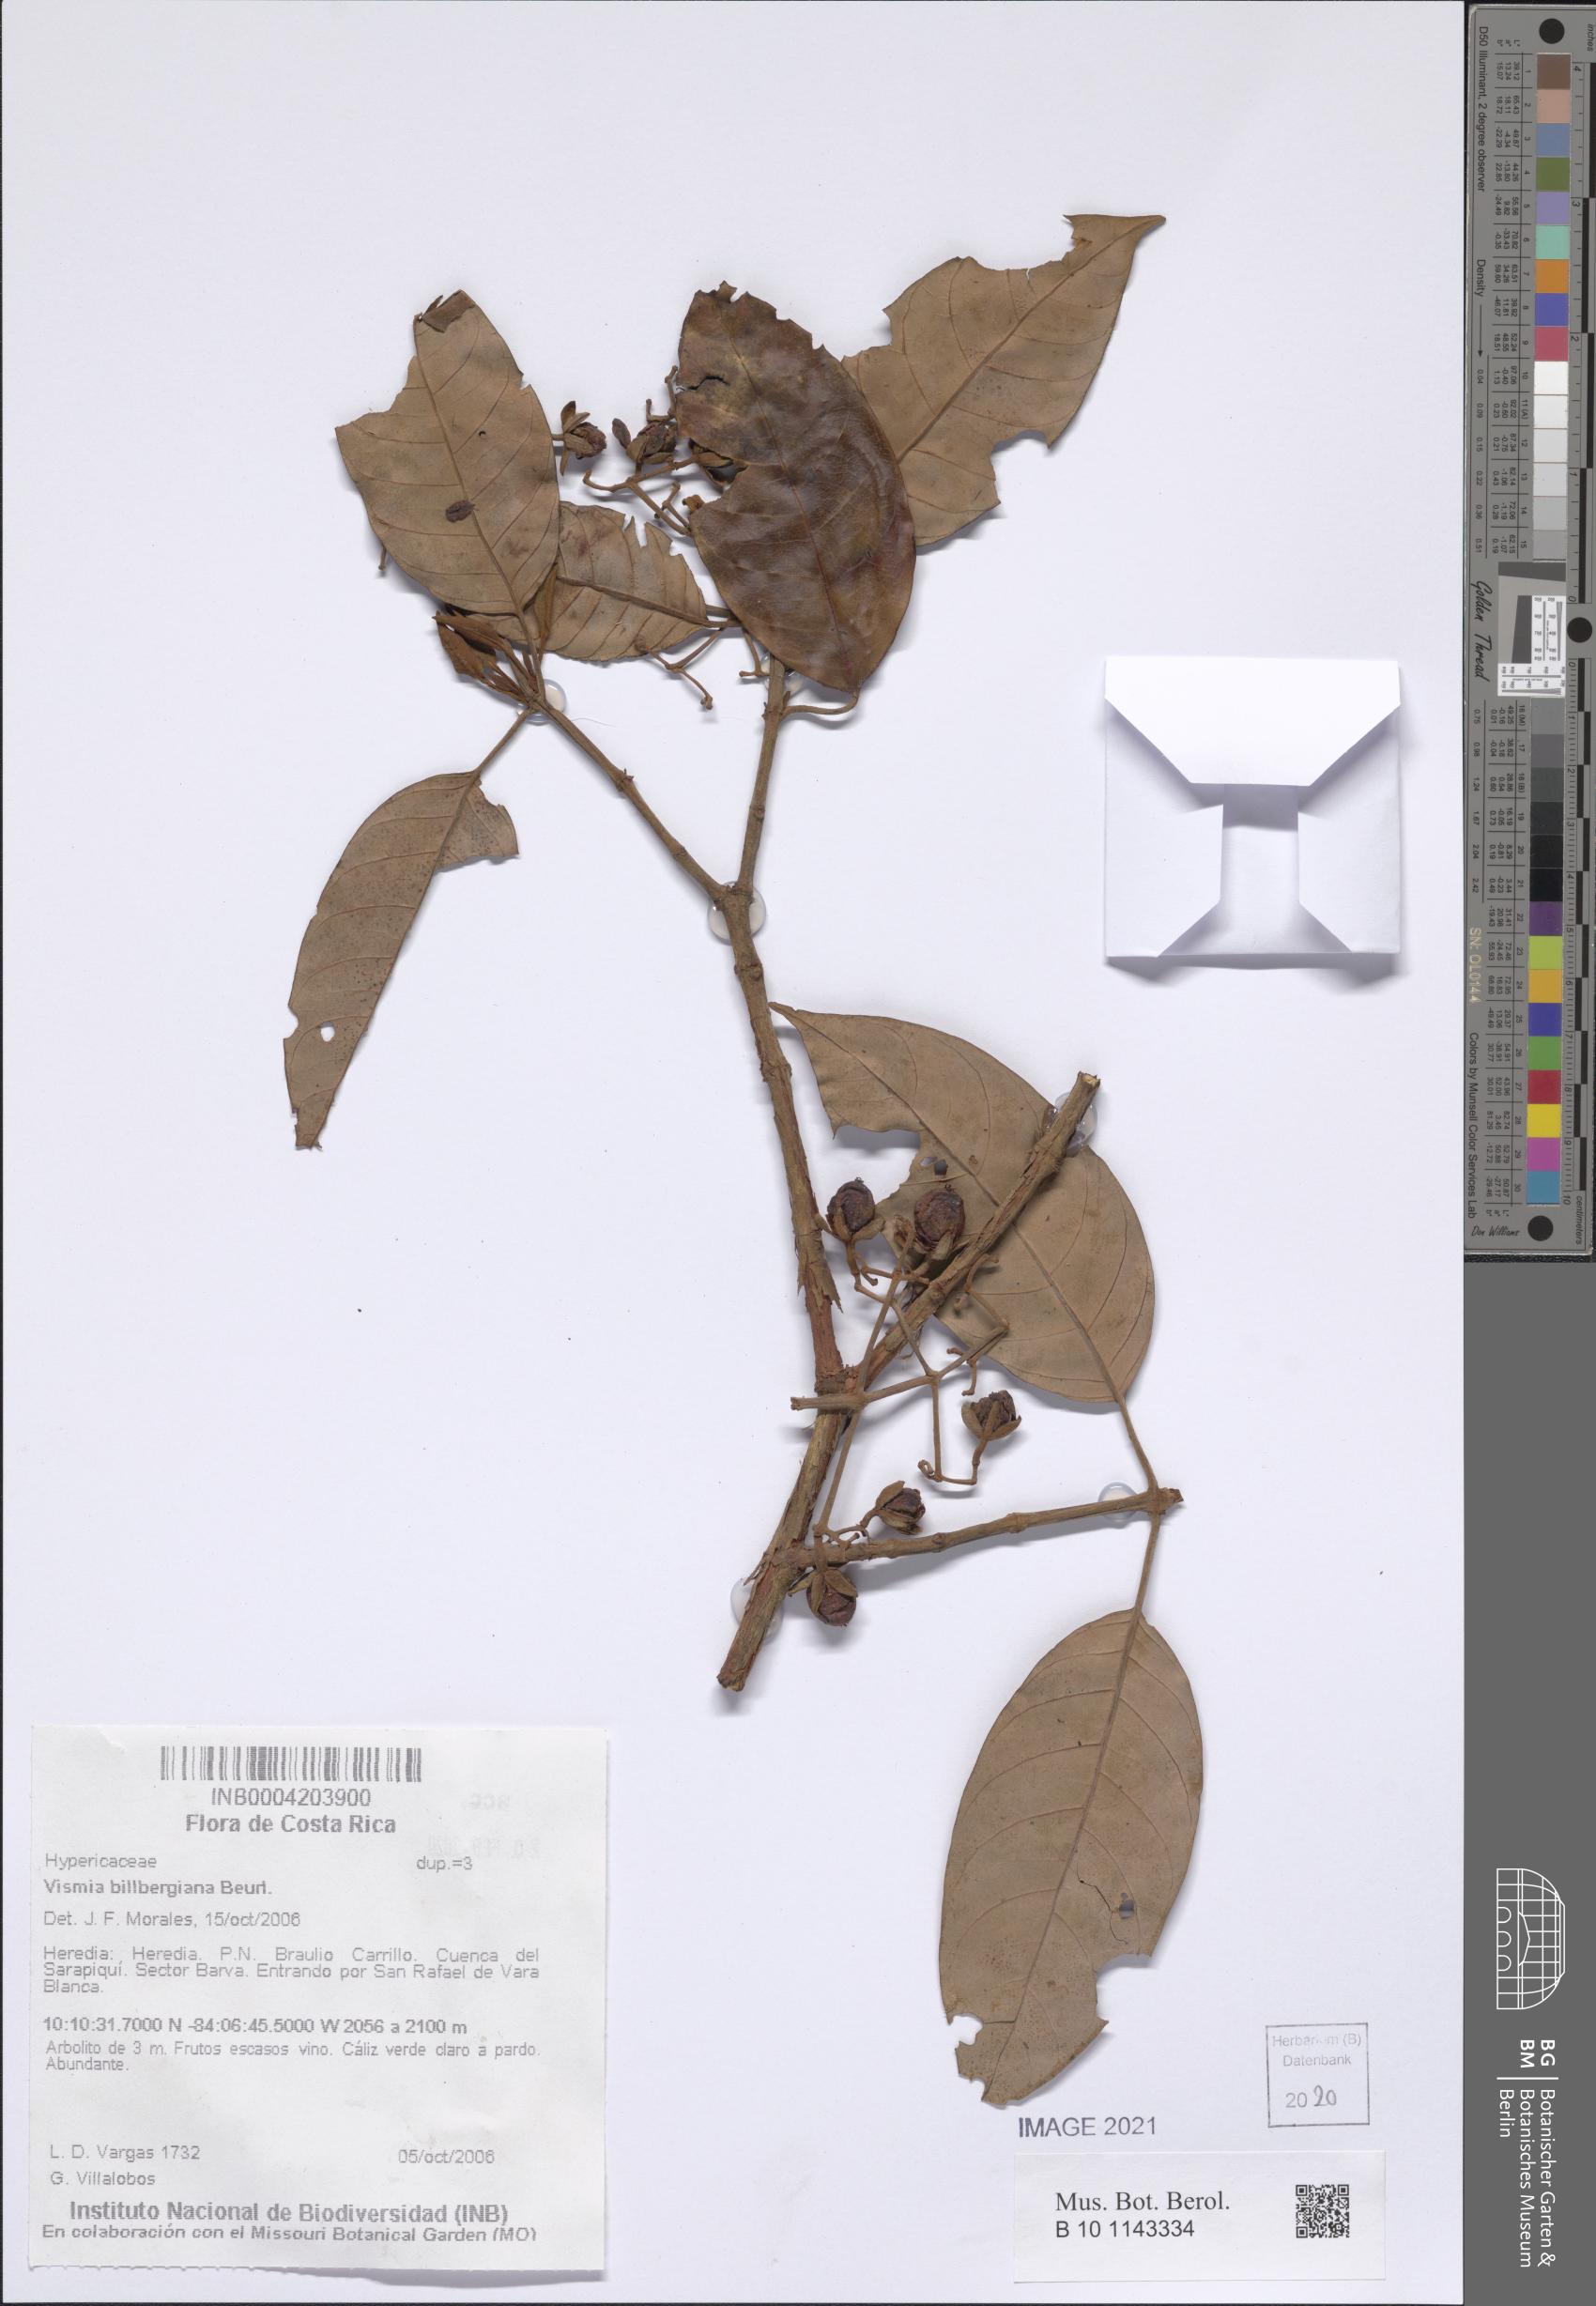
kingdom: Plantae
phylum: Tracheophyta
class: Magnoliopsida
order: Malpighiales
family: Hypericaceae
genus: Vismia
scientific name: Vismia billbergiana
